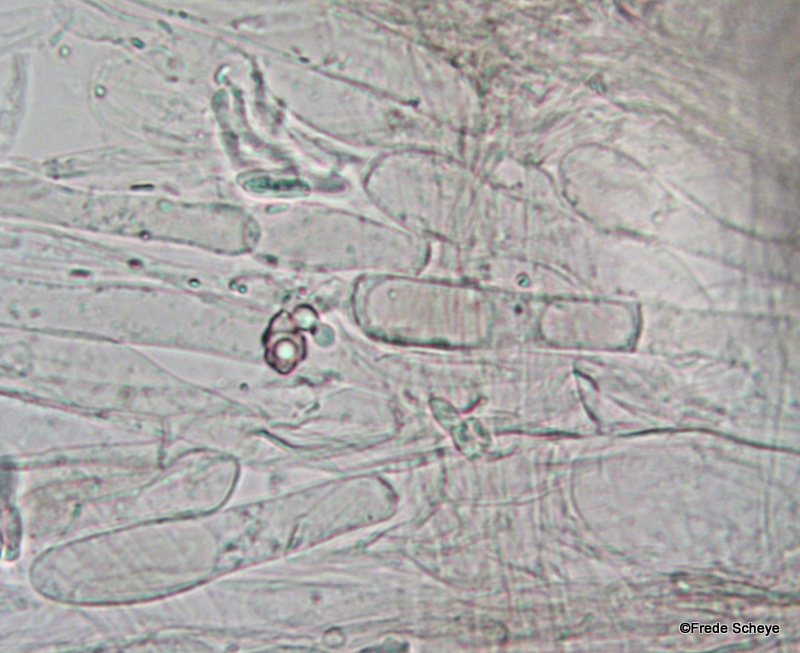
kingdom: Fungi
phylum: Basidiomycota
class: Agaricomycetes
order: Agaricales
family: Entolomataceae
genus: Entoloma
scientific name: Entoloma hebes
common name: krat-rødblad
